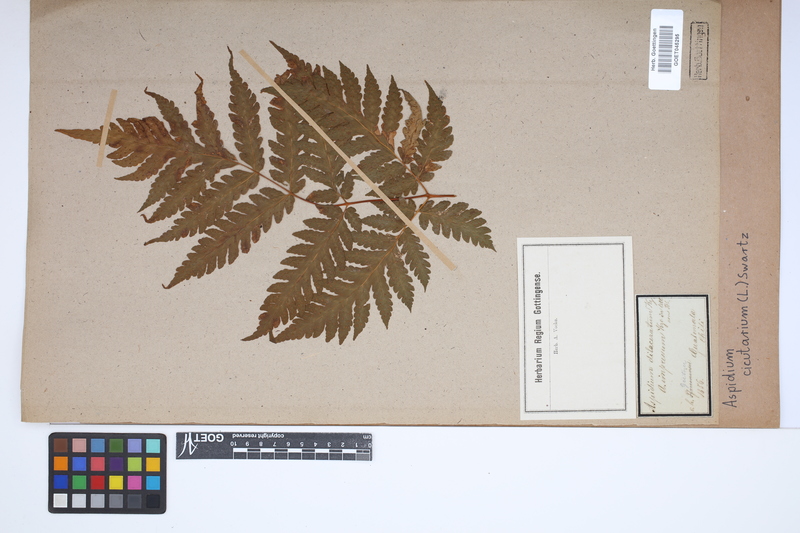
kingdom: Plantae
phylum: Tracheophyta
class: Polypodiopsida
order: Polypodiales
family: Tectariaceae
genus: Tectaria
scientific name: Tectaria cicutaria
